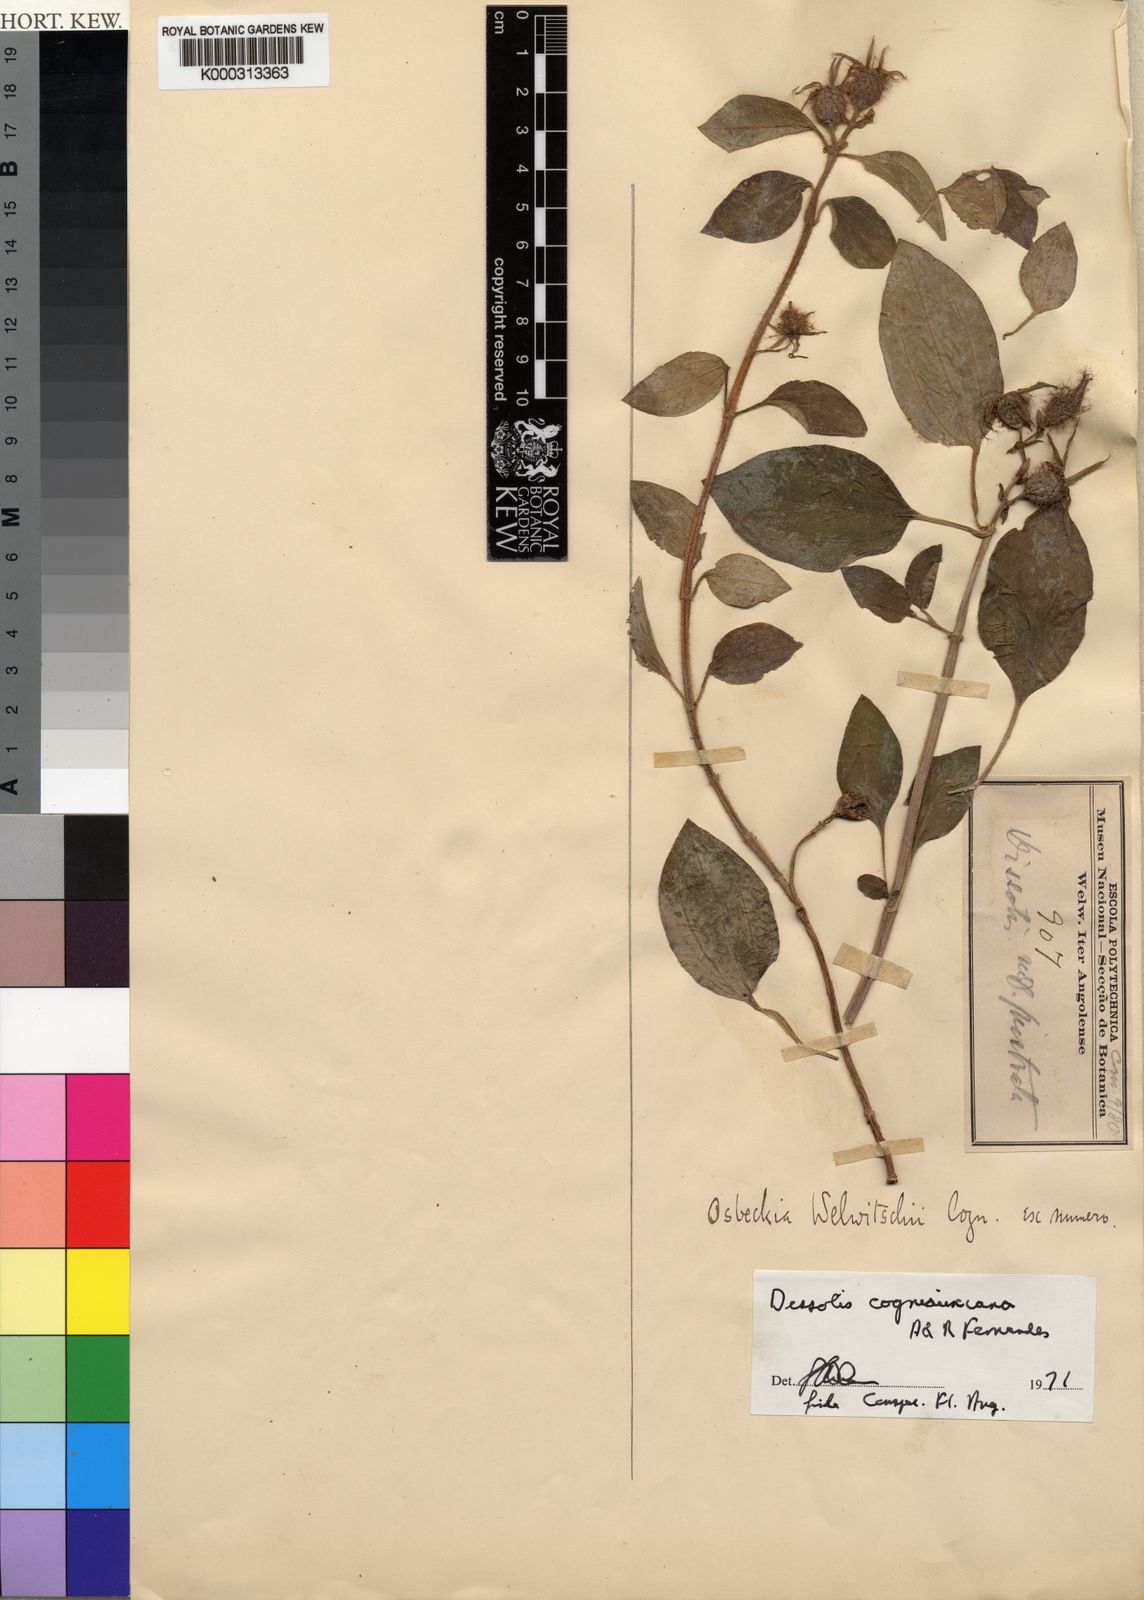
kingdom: Plantae
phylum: Tracheophyta
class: Magnoliopsida
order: Myrtales
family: Melastomataceae
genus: Heterotis
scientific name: Heterotis cogniauxiana
